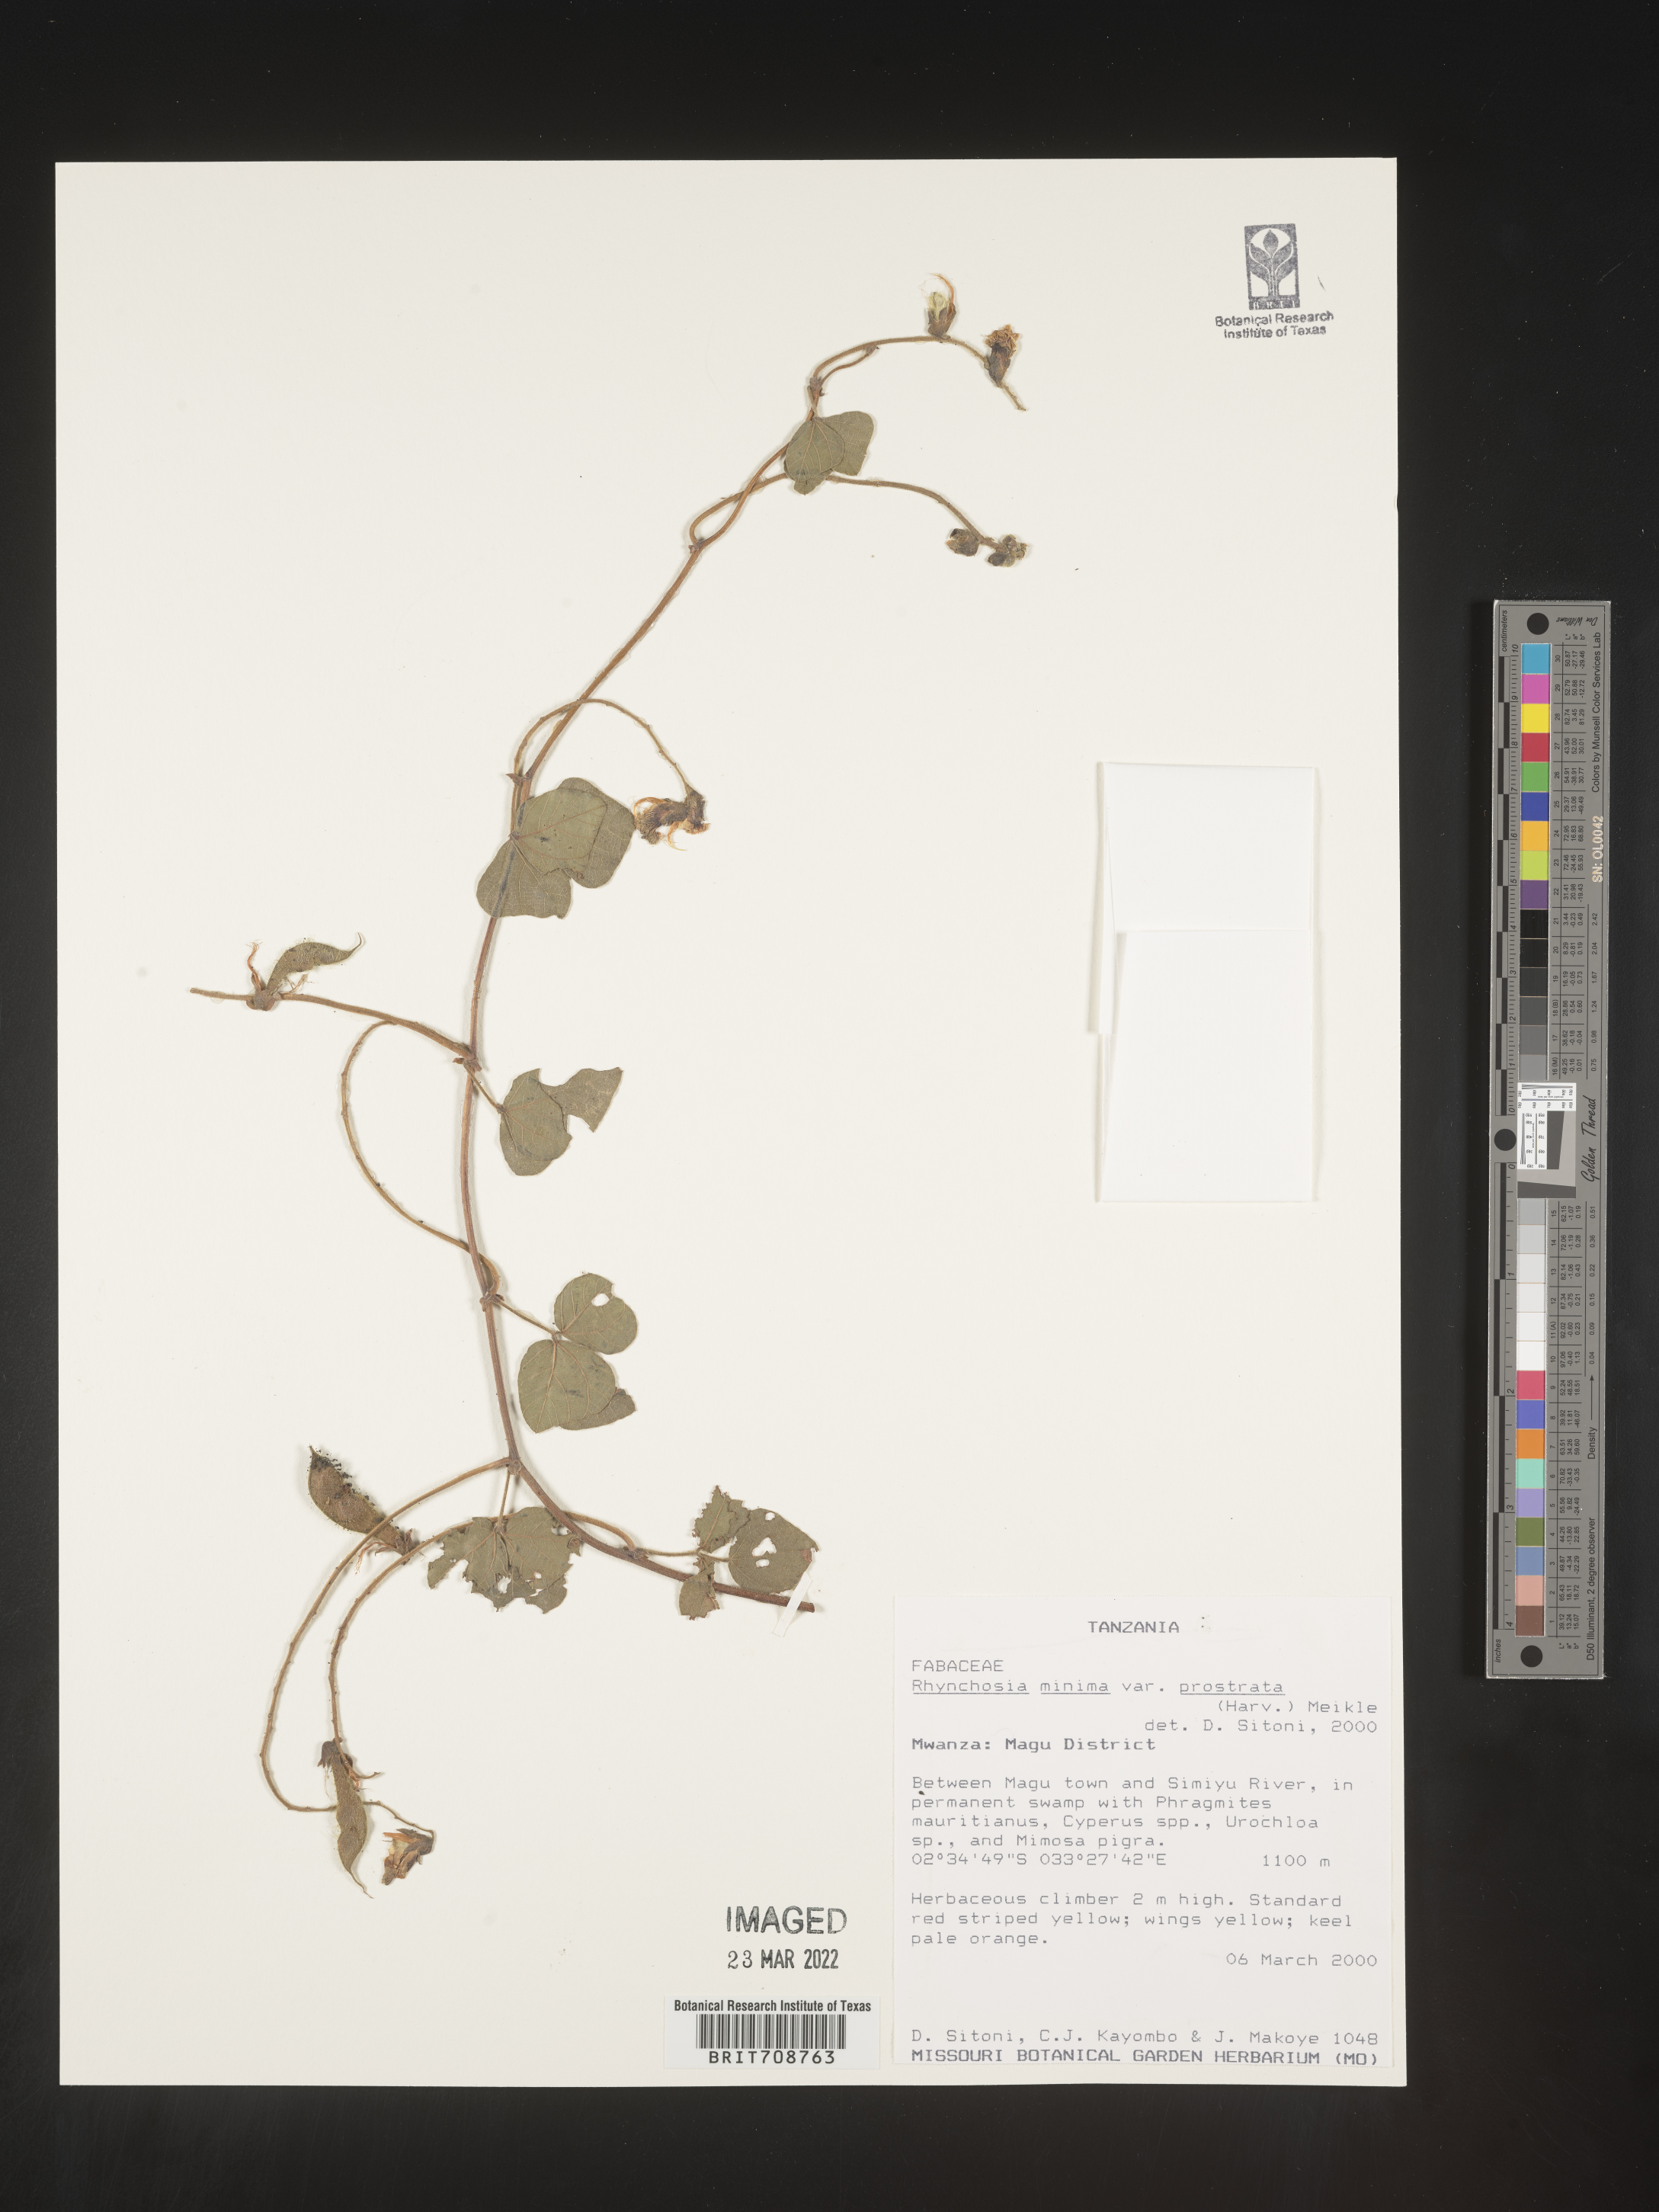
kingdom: Plantae
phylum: Tracheophyta
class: Magnoliopsida
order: Fabales
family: Fabaceae
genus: Rhynchosia
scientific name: Rhynchosia
